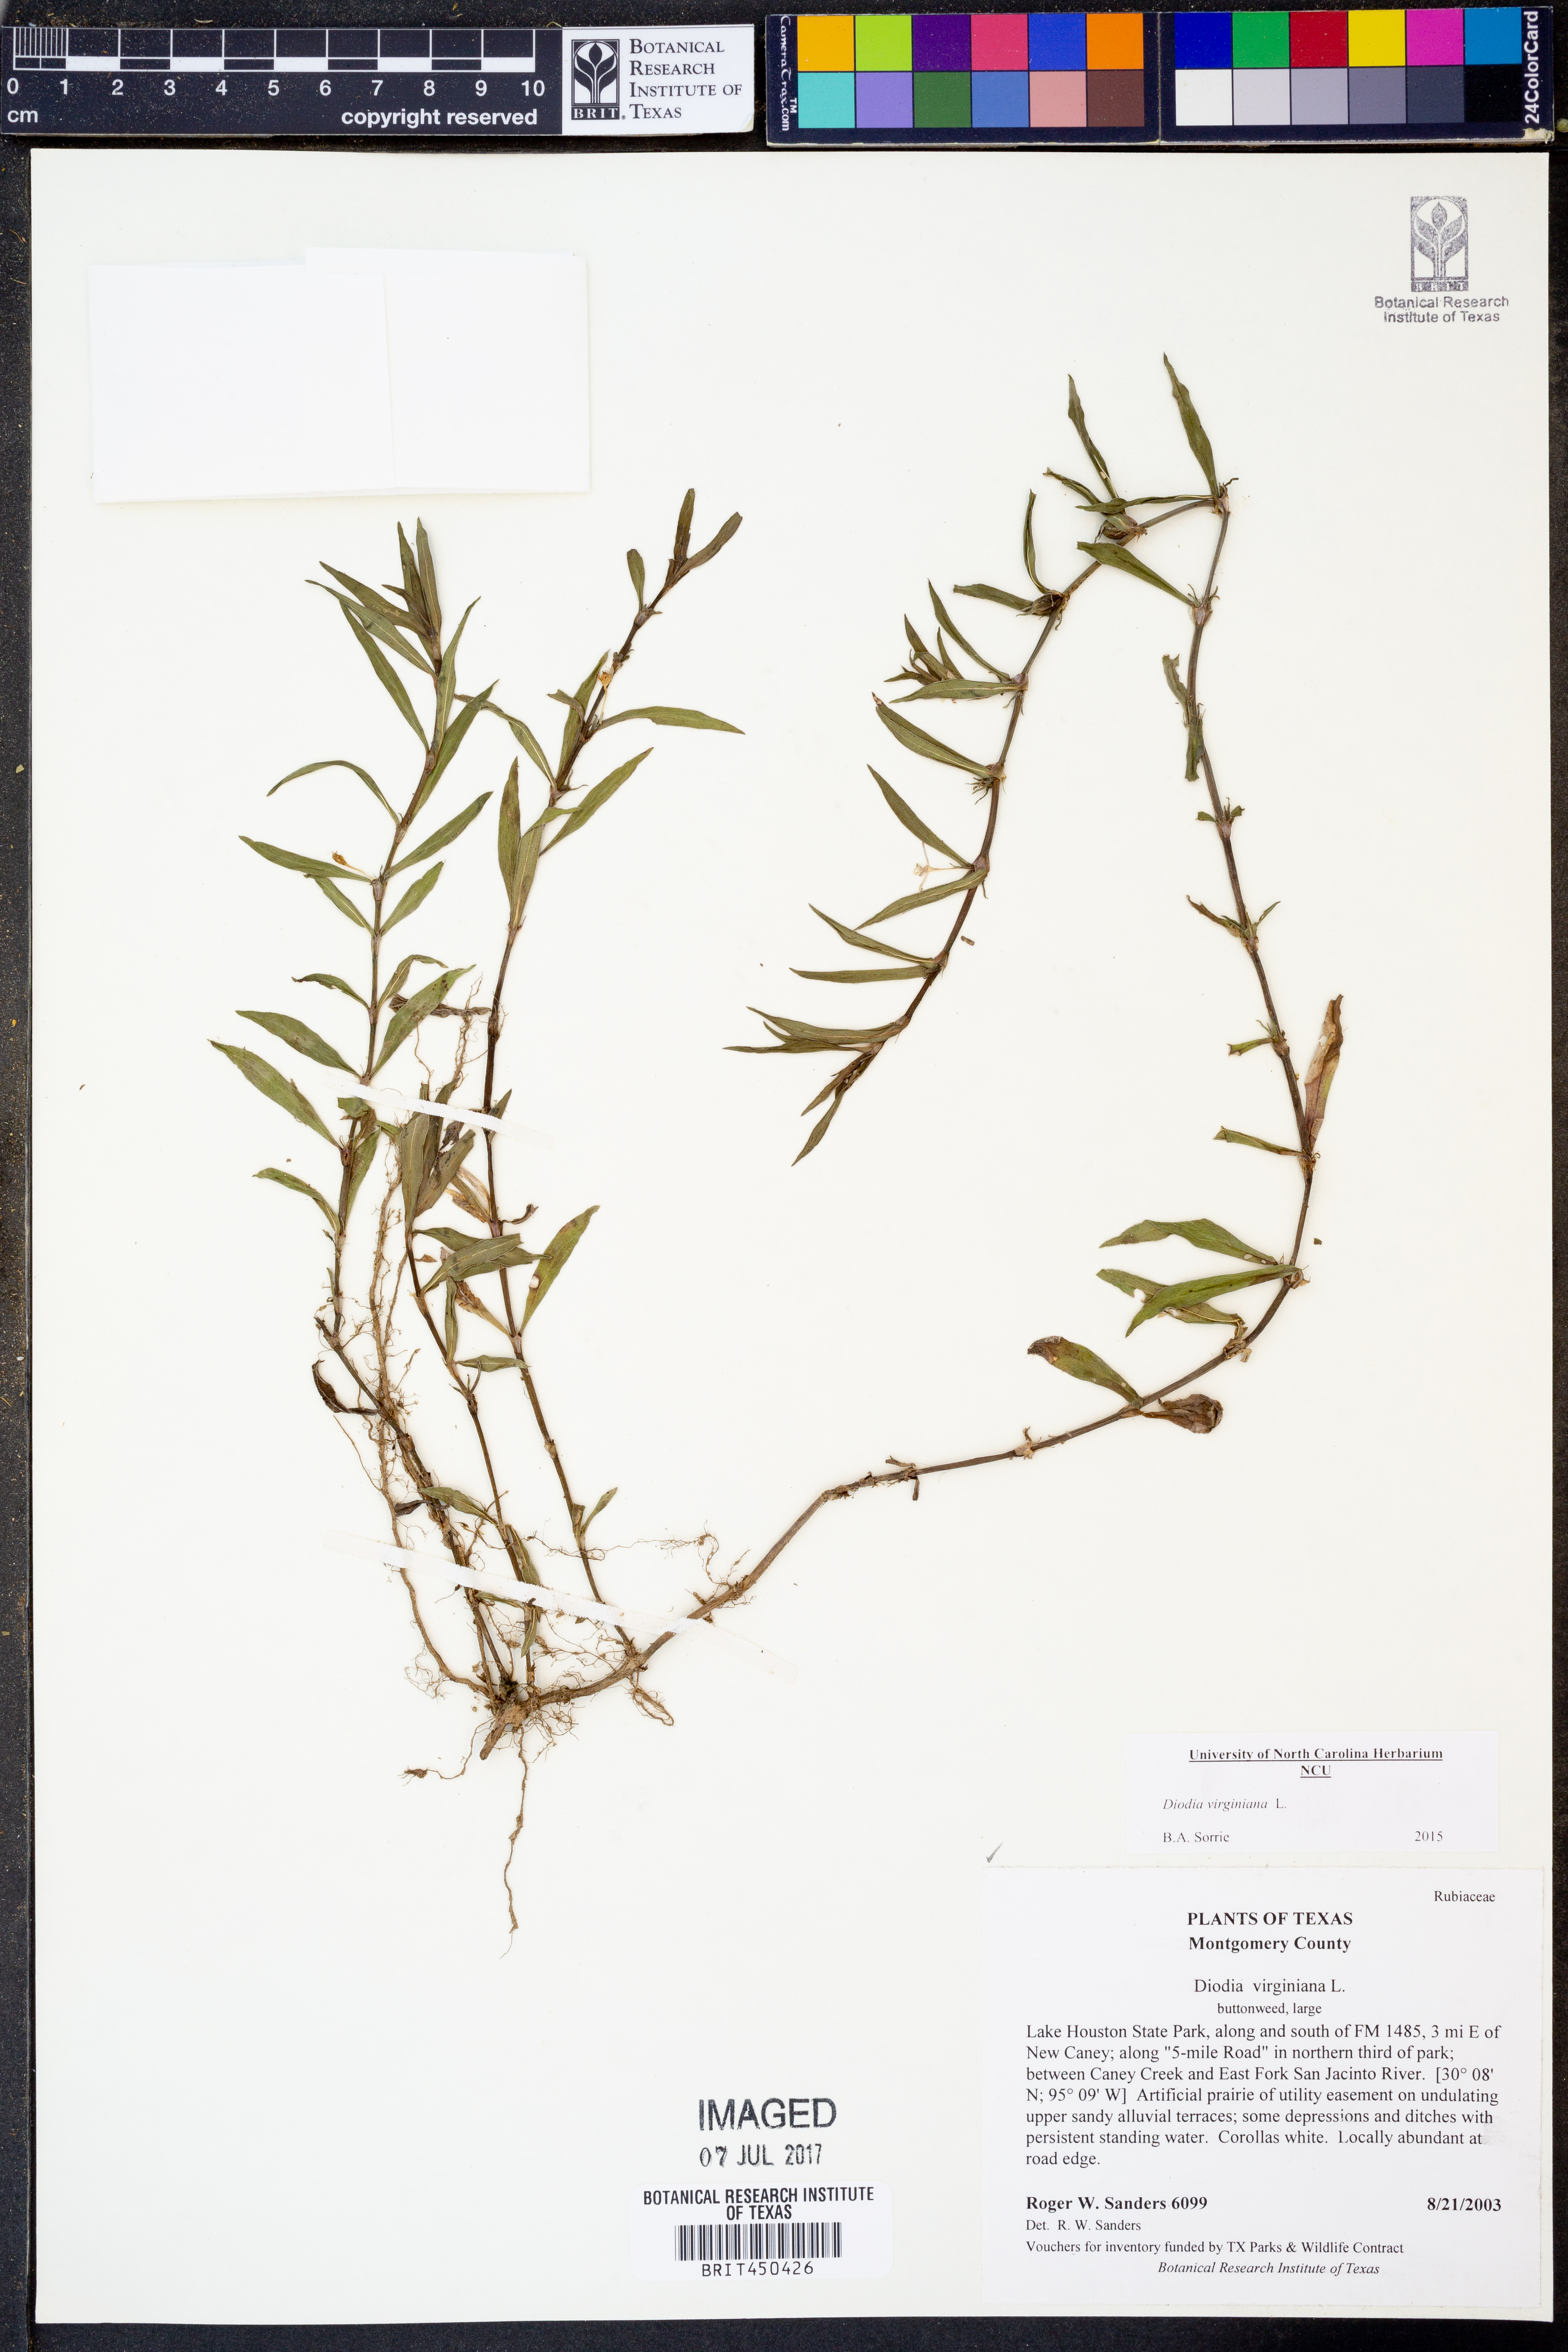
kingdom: Plantae
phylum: Tracheophyta
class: Magnoliopsida
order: Gentianales
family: Rubiaceae
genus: Diodia
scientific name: Diodia virginiana
